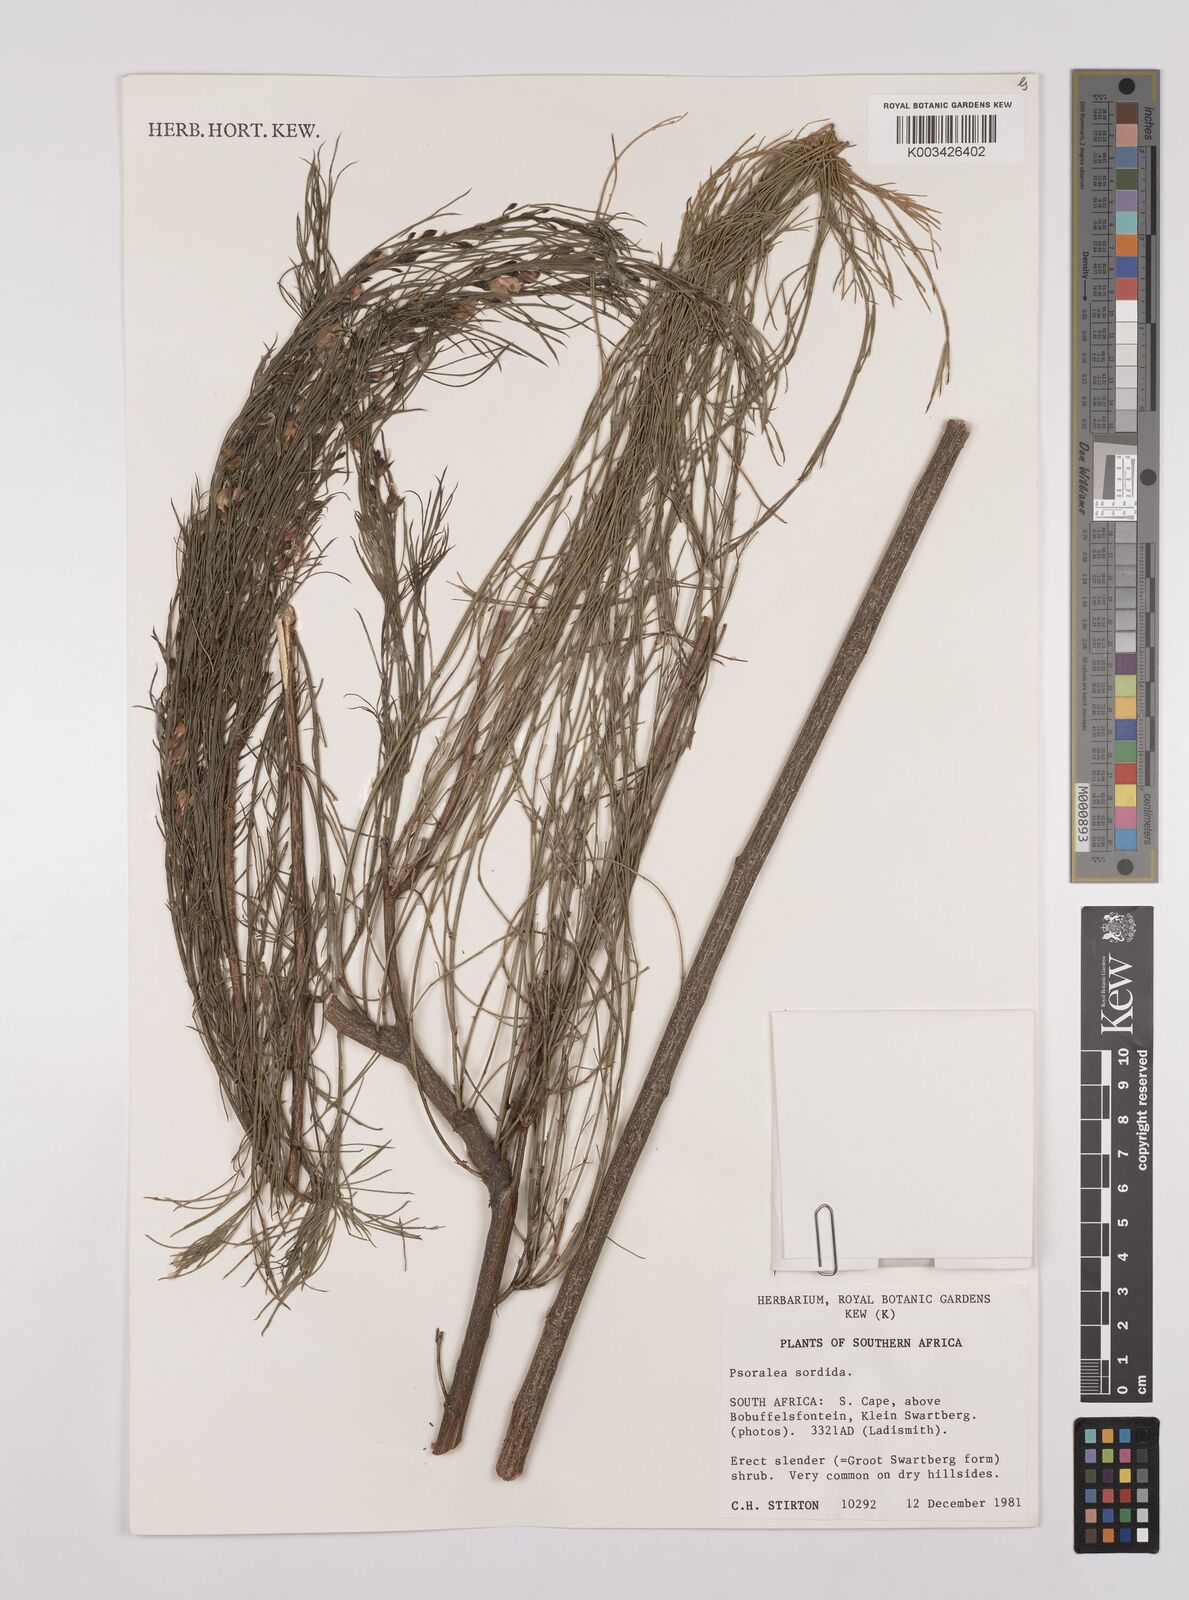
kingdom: Plantae
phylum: Tracheophyta
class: Magnoliopsida
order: Fabales
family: Fabaceae
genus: Psoralea
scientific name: Psoralea sordida
